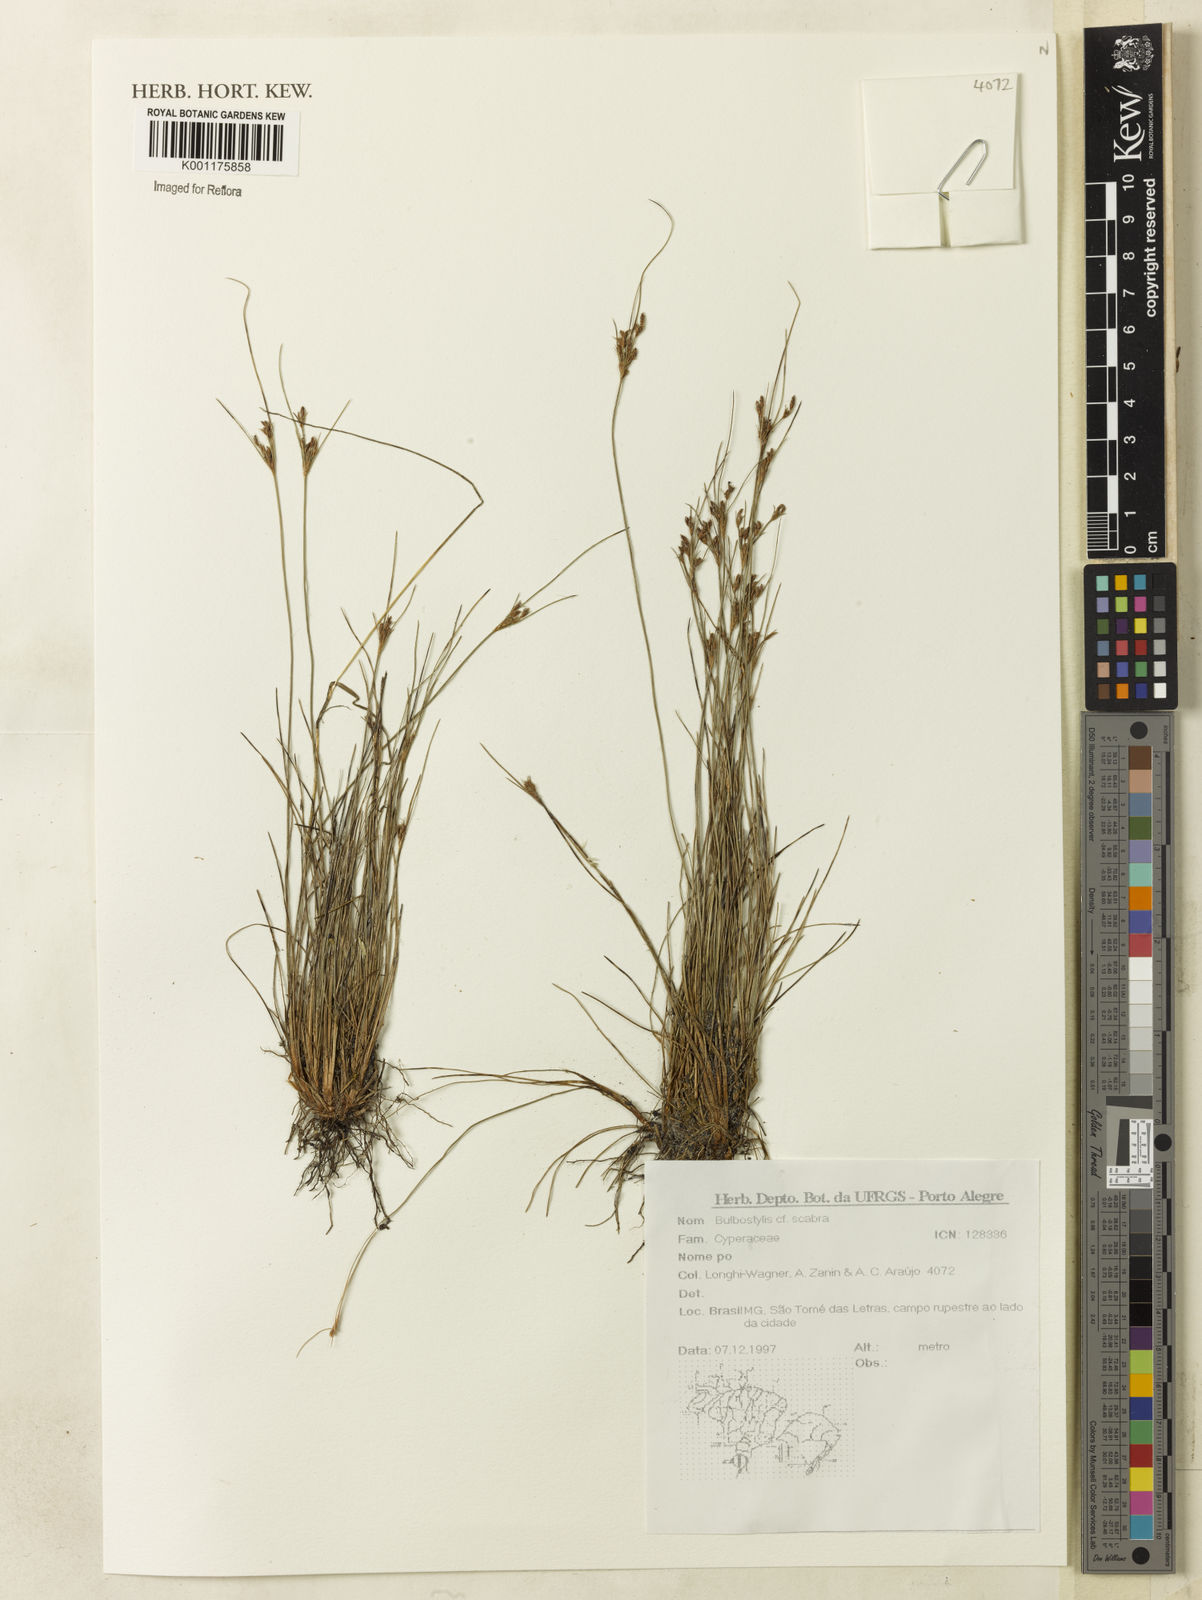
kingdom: Plantae
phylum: Tracheophyta
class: Liliopsida
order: Poales
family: Cyperaceae
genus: Bulbostylis
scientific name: Bulbostylis scabra
